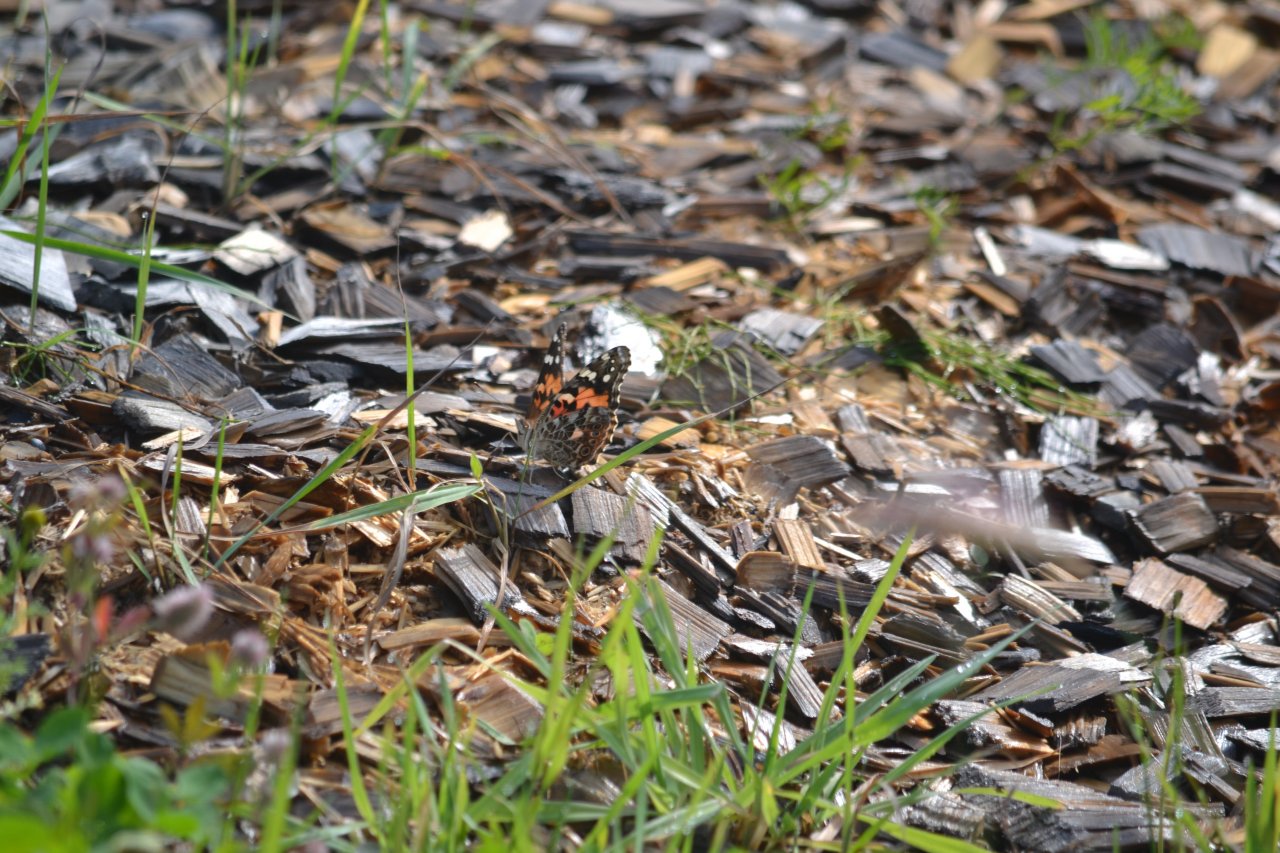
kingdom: Animalia
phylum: Arthropoda
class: Insecta
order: Lepidoptera
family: Nymphalidae
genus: Vanessa
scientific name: Vanessa cardui
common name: Painted Lady
